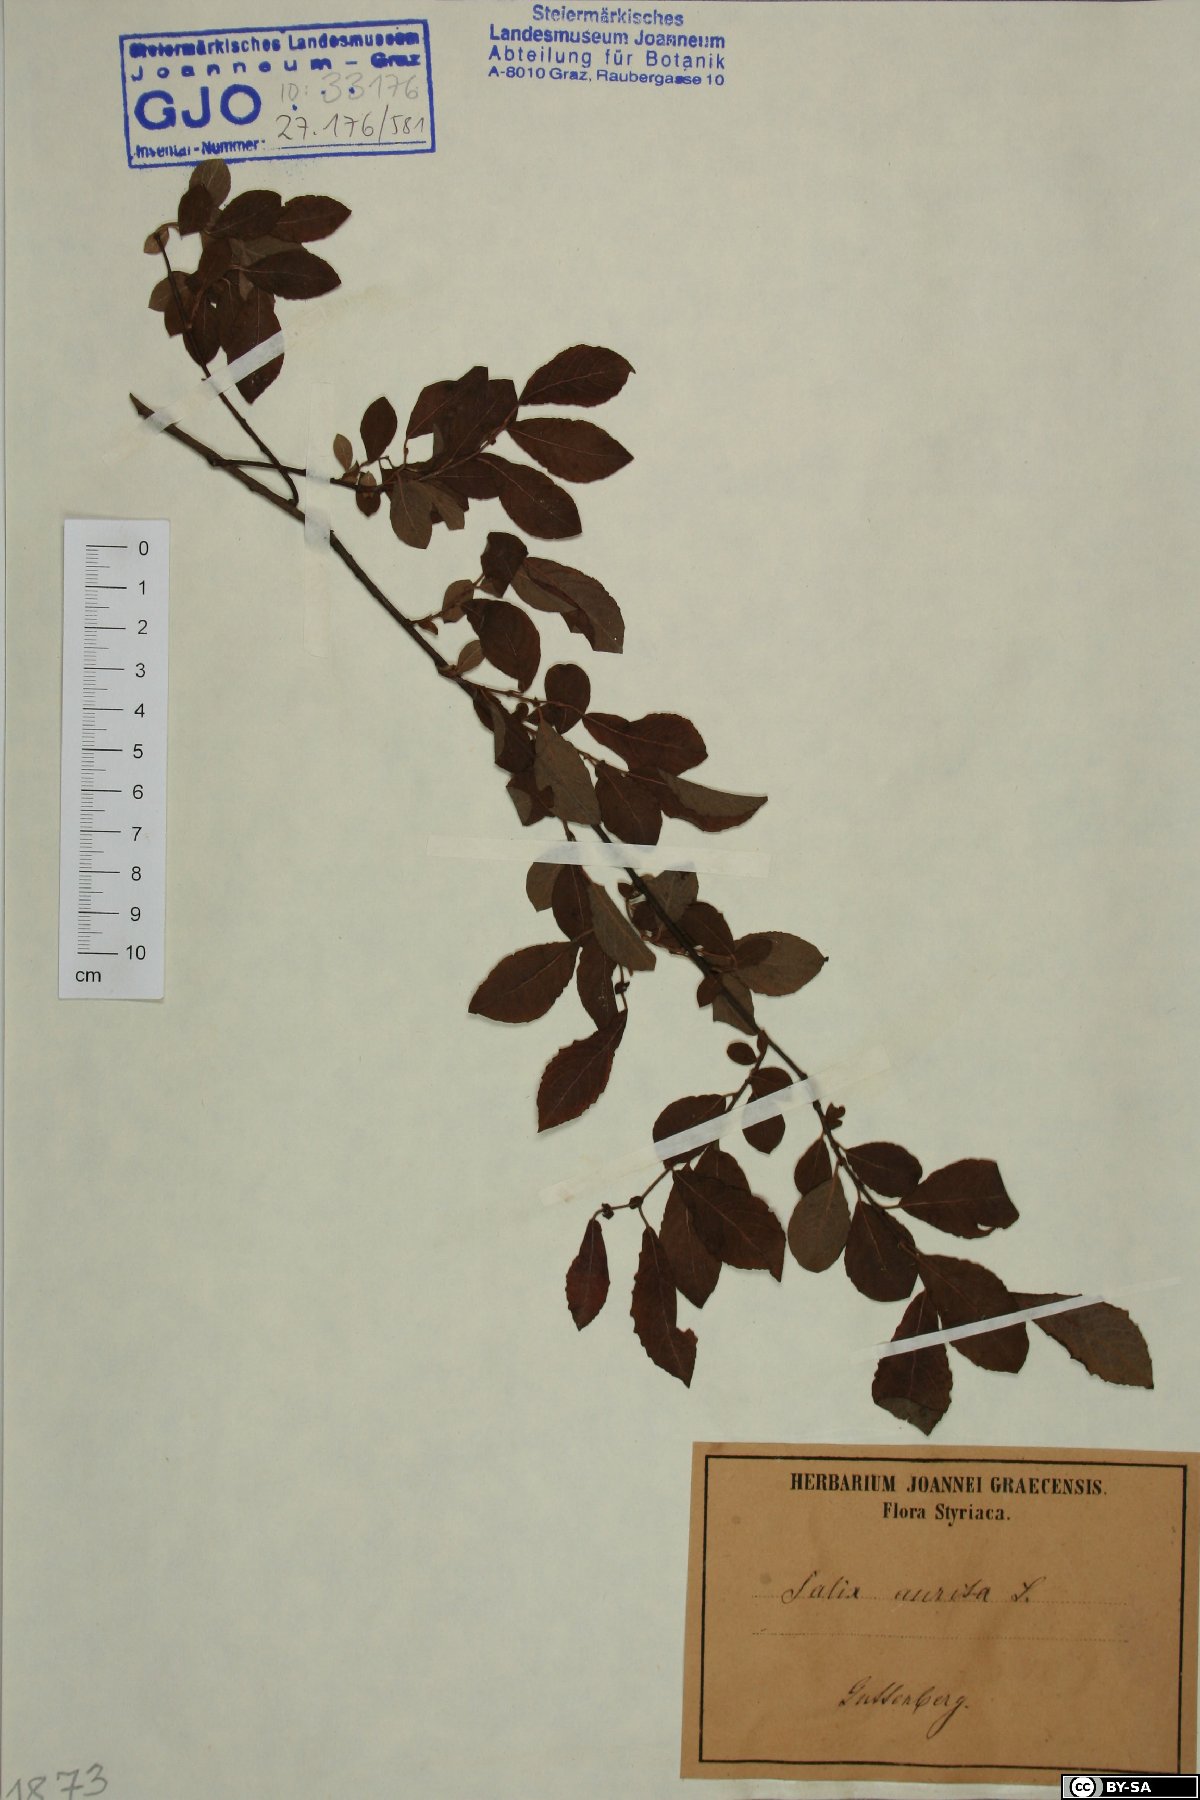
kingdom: Plantae
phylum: Tracheophyta
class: Magnoliopsida
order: Malpighiales
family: Salicaceae
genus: Salix
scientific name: Salix aurita
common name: Eared willow
